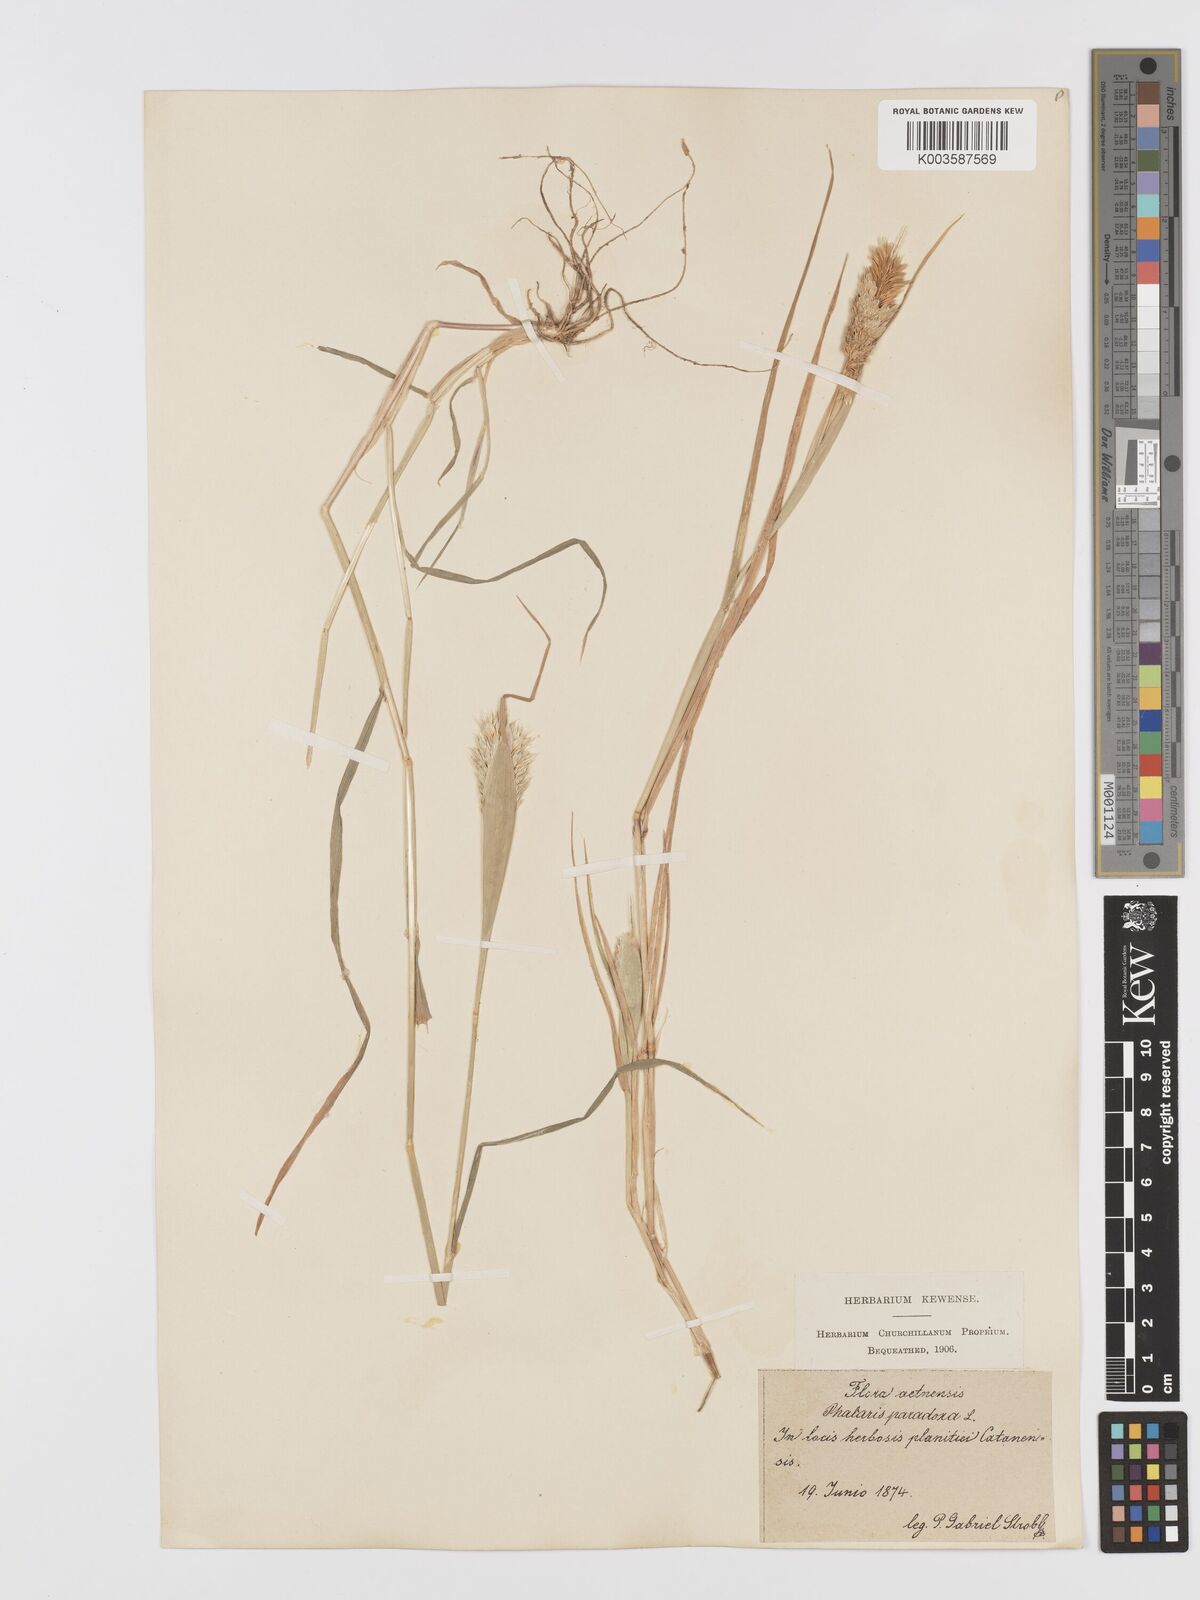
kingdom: Plantae
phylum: Tracheophyta
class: Liliopsida
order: Poales
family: Poaceae
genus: Phalaris
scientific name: Phalaris paradoxa
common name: Awned canary-grass
